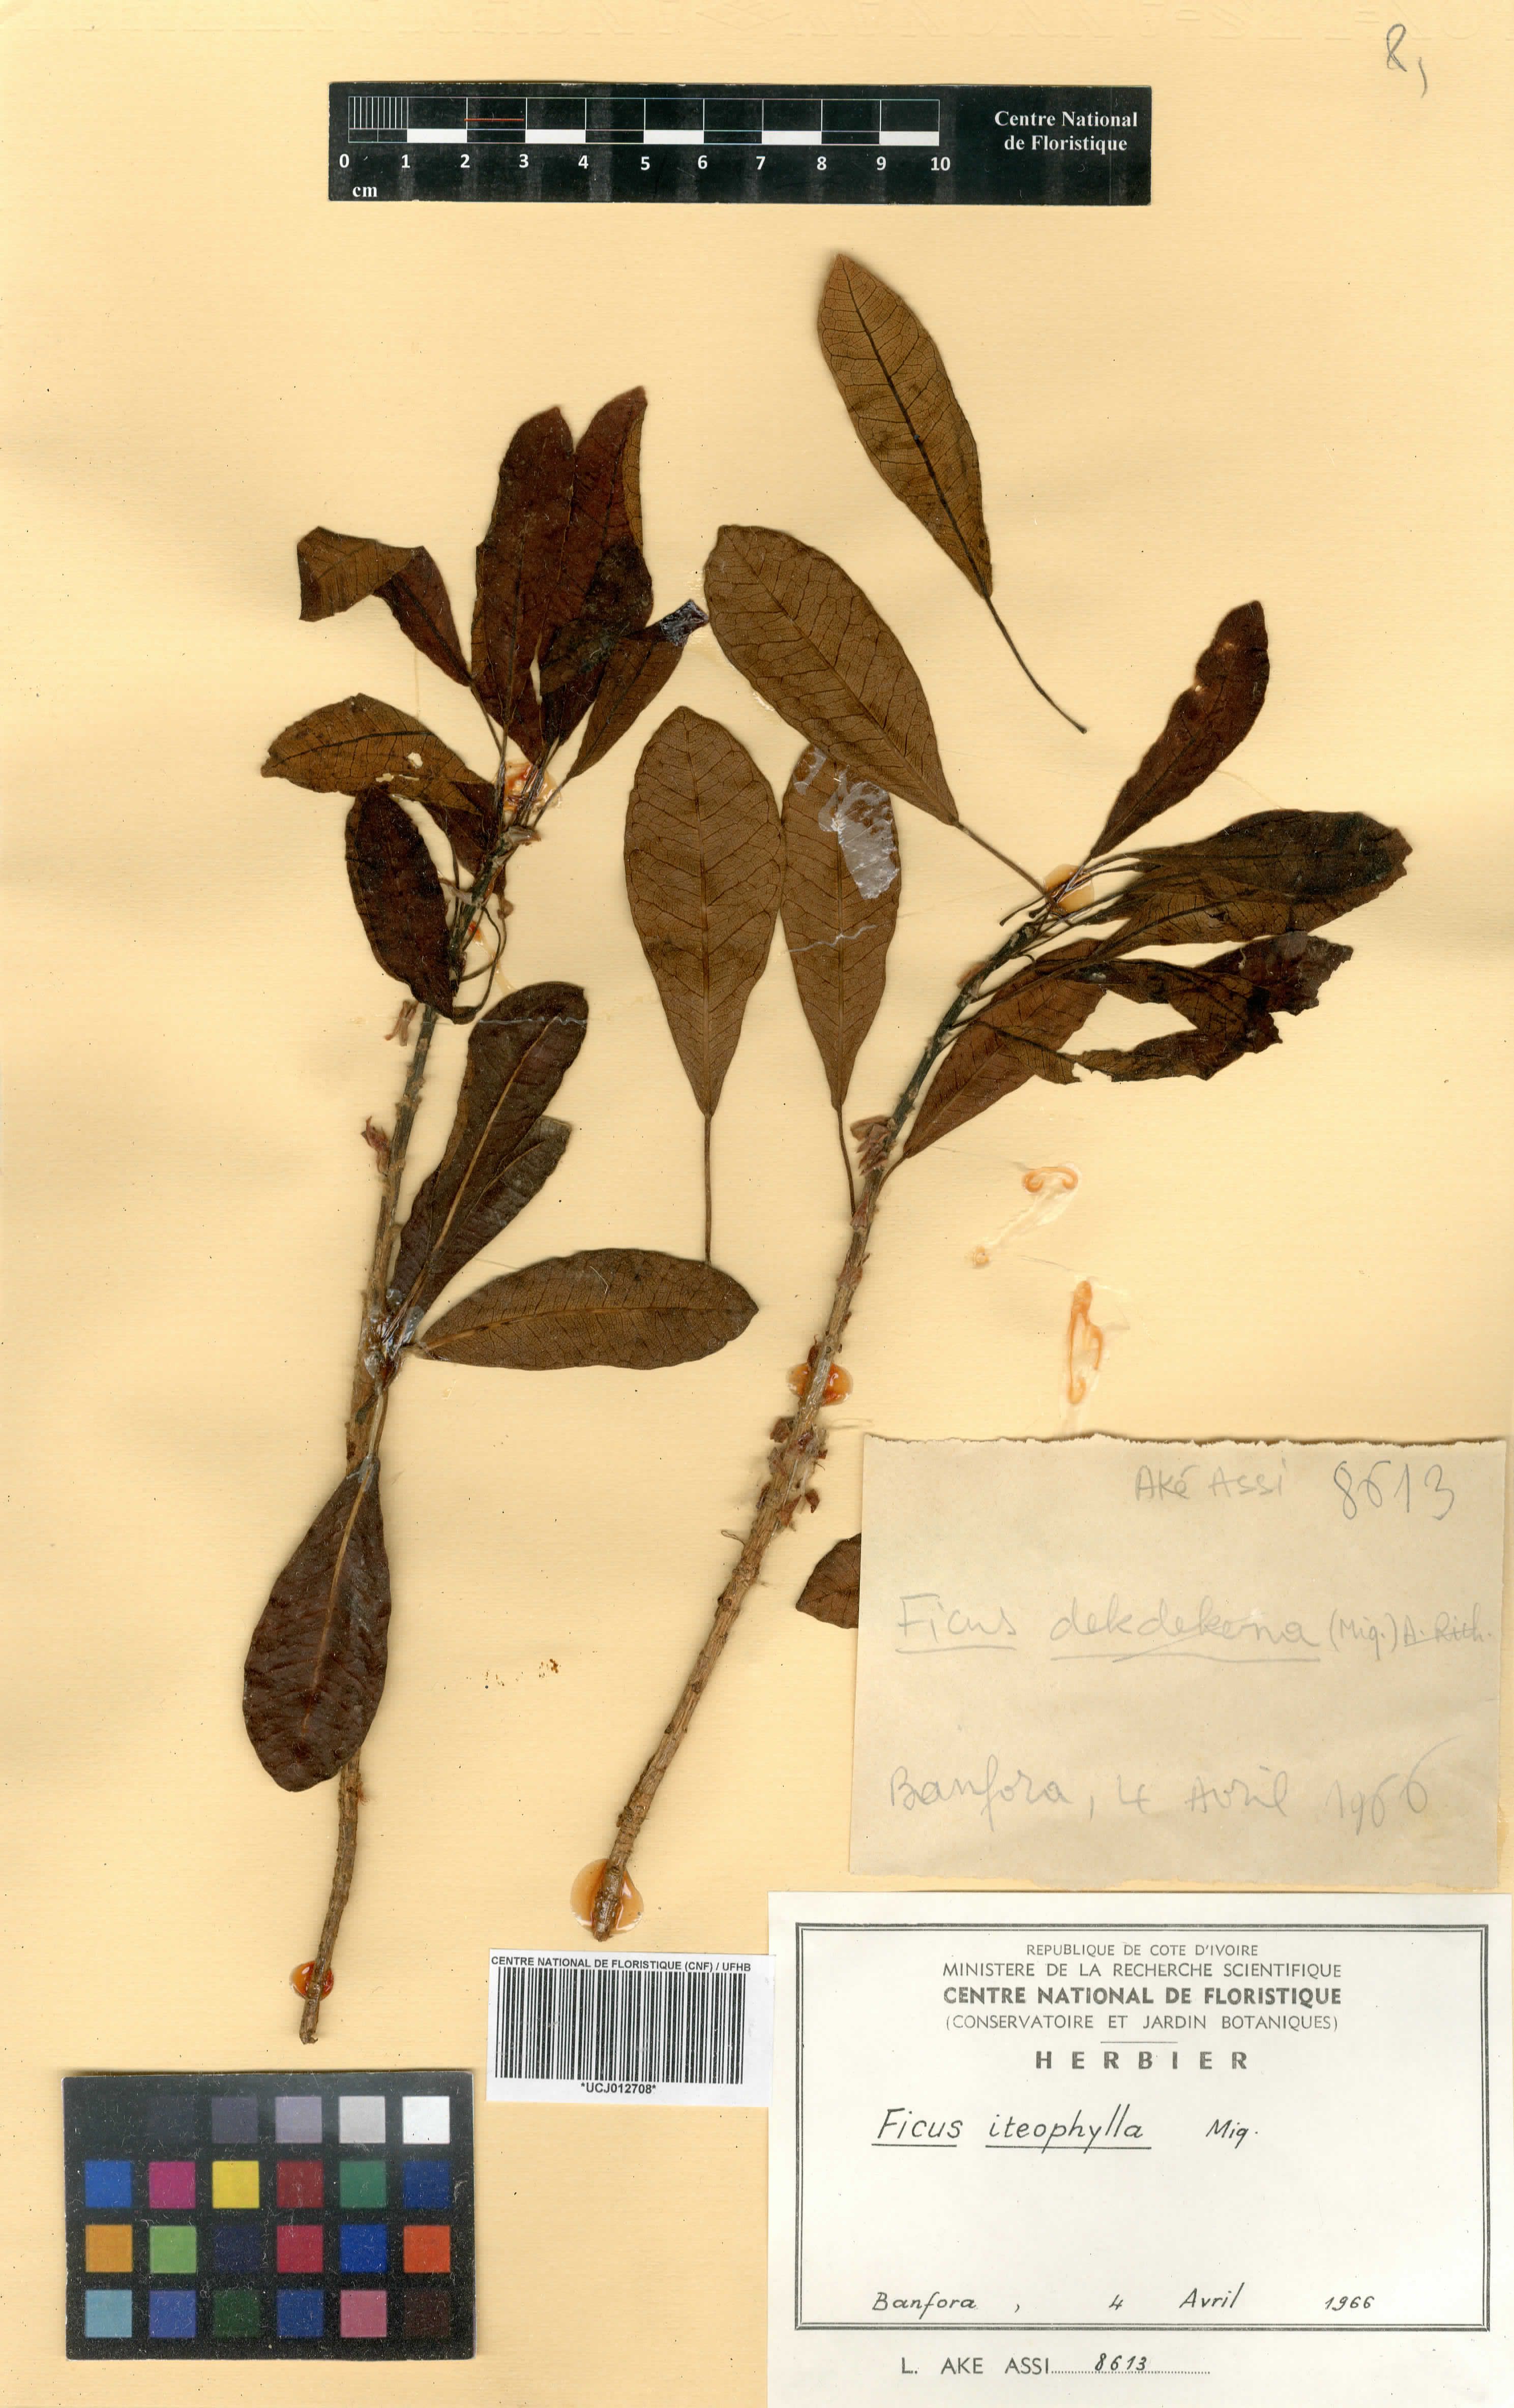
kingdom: Plantae
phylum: Tracheophyta
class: Magnoliopsida
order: Rosales
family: Moraceae
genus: Ficus
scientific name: Ficus thonningii
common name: Fig
